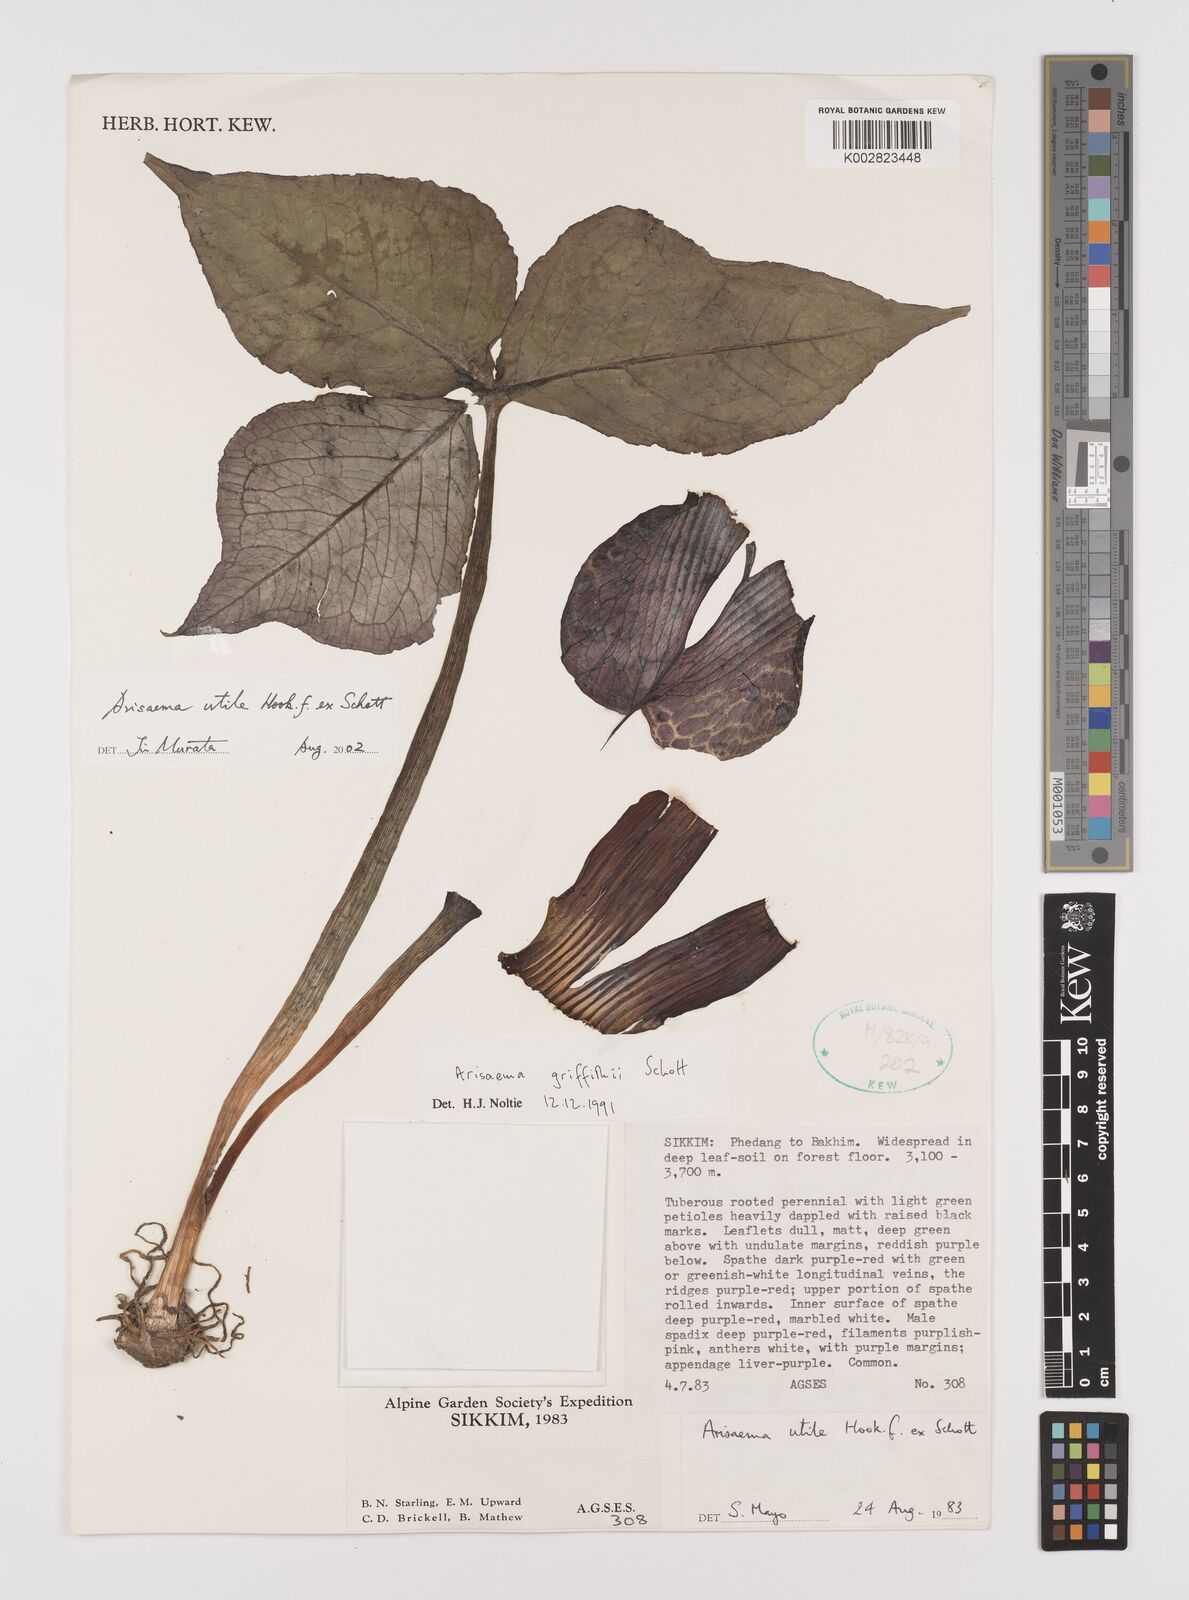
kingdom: Plantae
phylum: Tracheophyta
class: Liliopsida
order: Alismatales
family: Araceae
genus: Arisaema
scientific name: Arisaema utile
